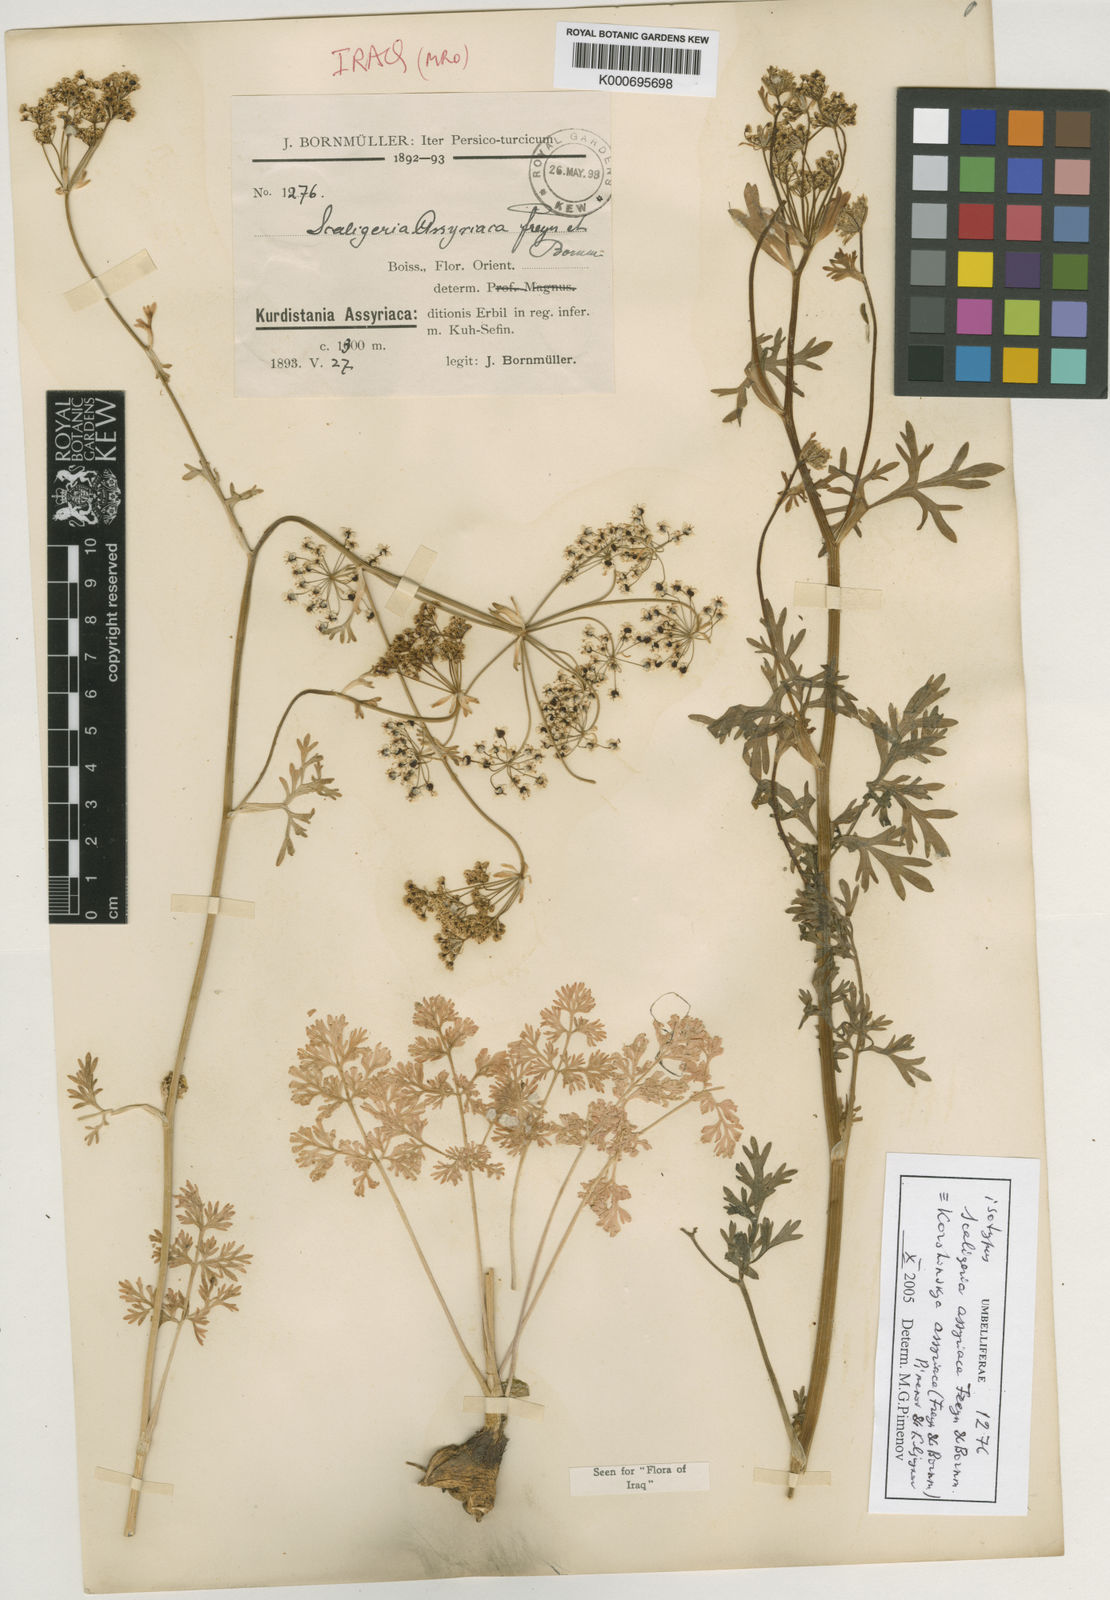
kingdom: Plantae
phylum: Tracheophyta
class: Magnoliopsida
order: Apiales
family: Apiaceae
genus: Korshinskia
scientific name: Korshinskia assyriaca
